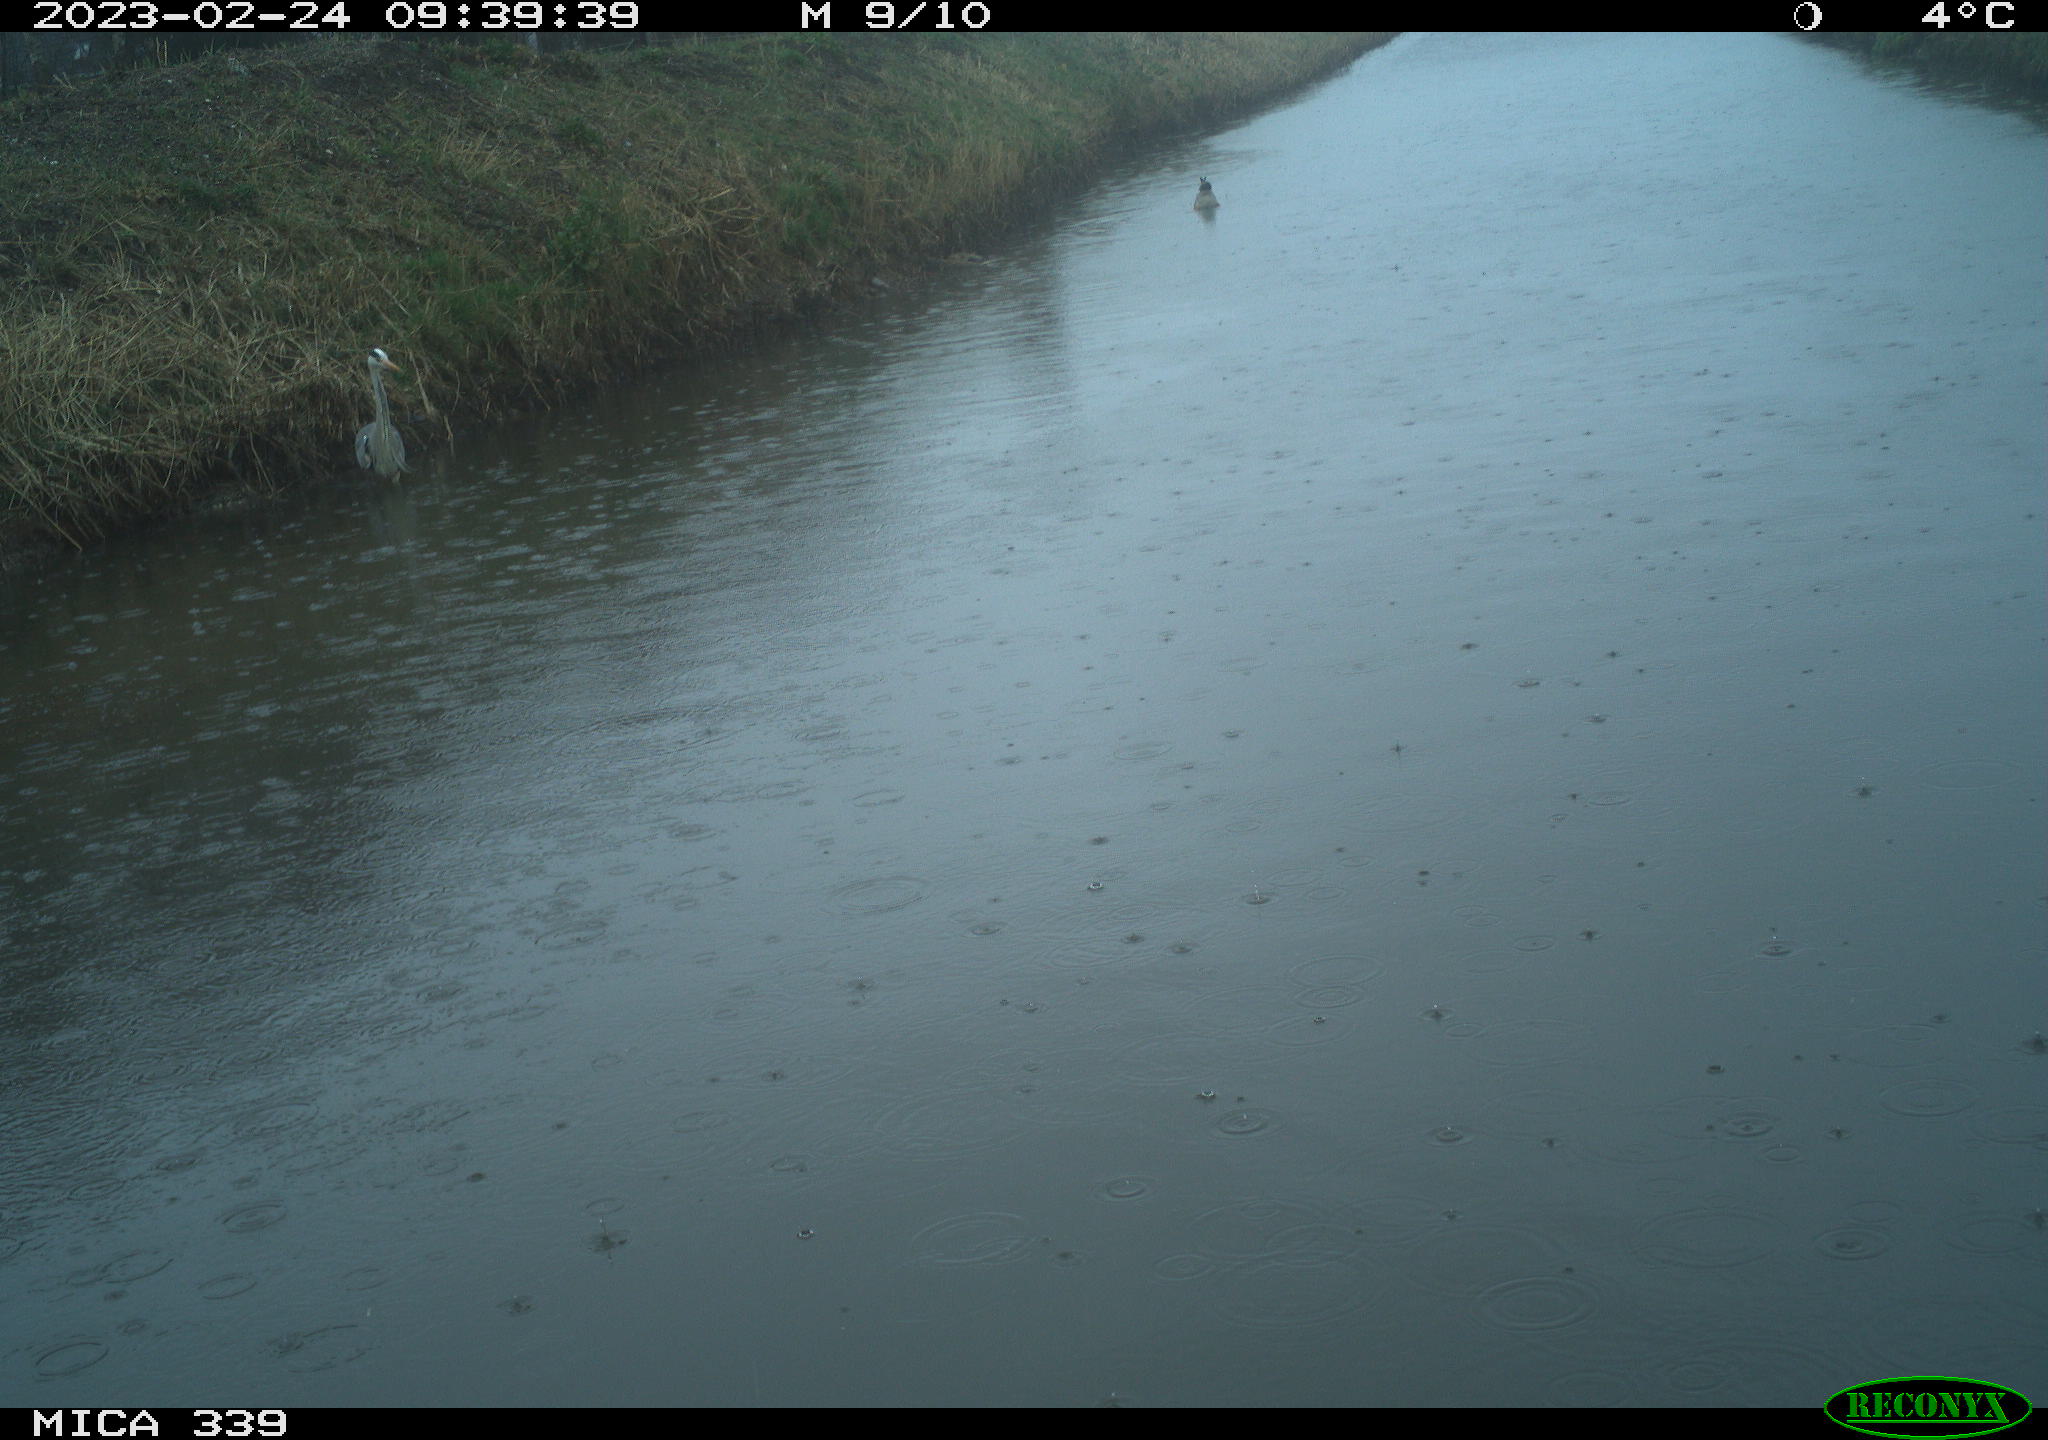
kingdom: Animalia
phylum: Chordata
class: Aves
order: Pelecaniformes
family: Ardeidae
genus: Ardea
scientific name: Ardea cinerea
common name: Grey heron
